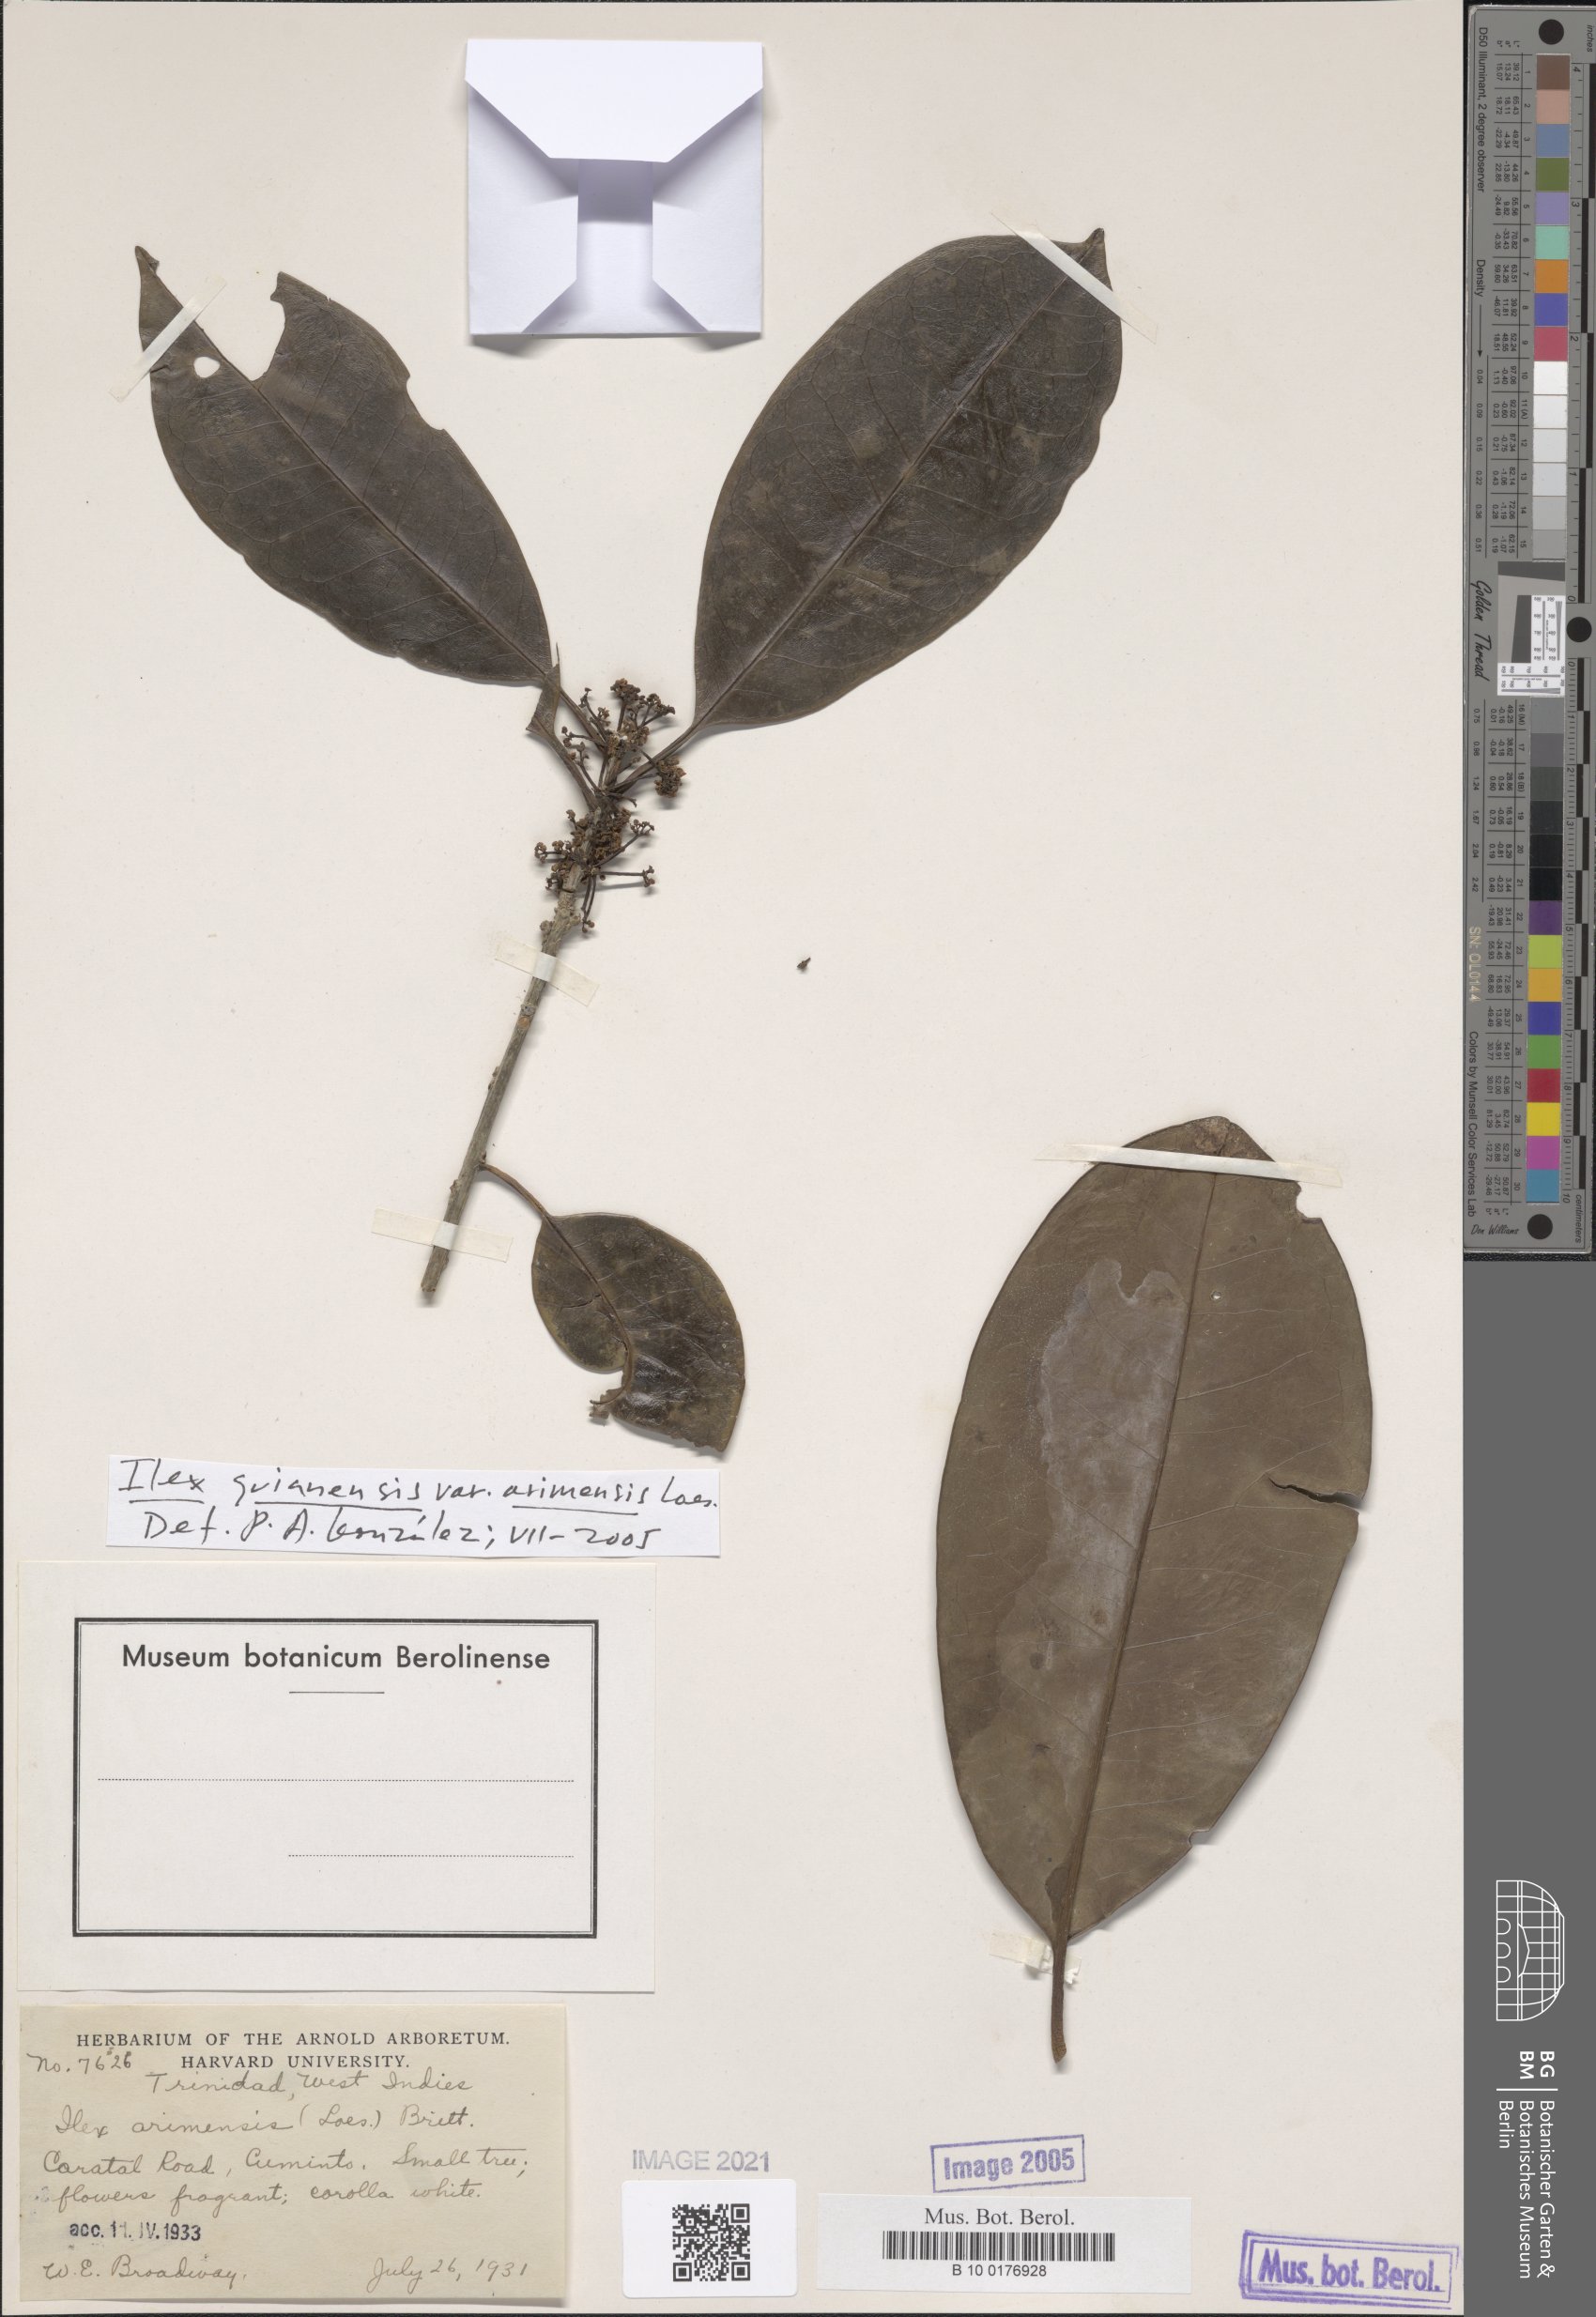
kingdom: Plantae
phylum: Tracheophyta
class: Magnoliopsida
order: Aquifoliales
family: Aquifoliaceae
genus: Ilex
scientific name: Ilex arimensis
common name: Biscuitwood
